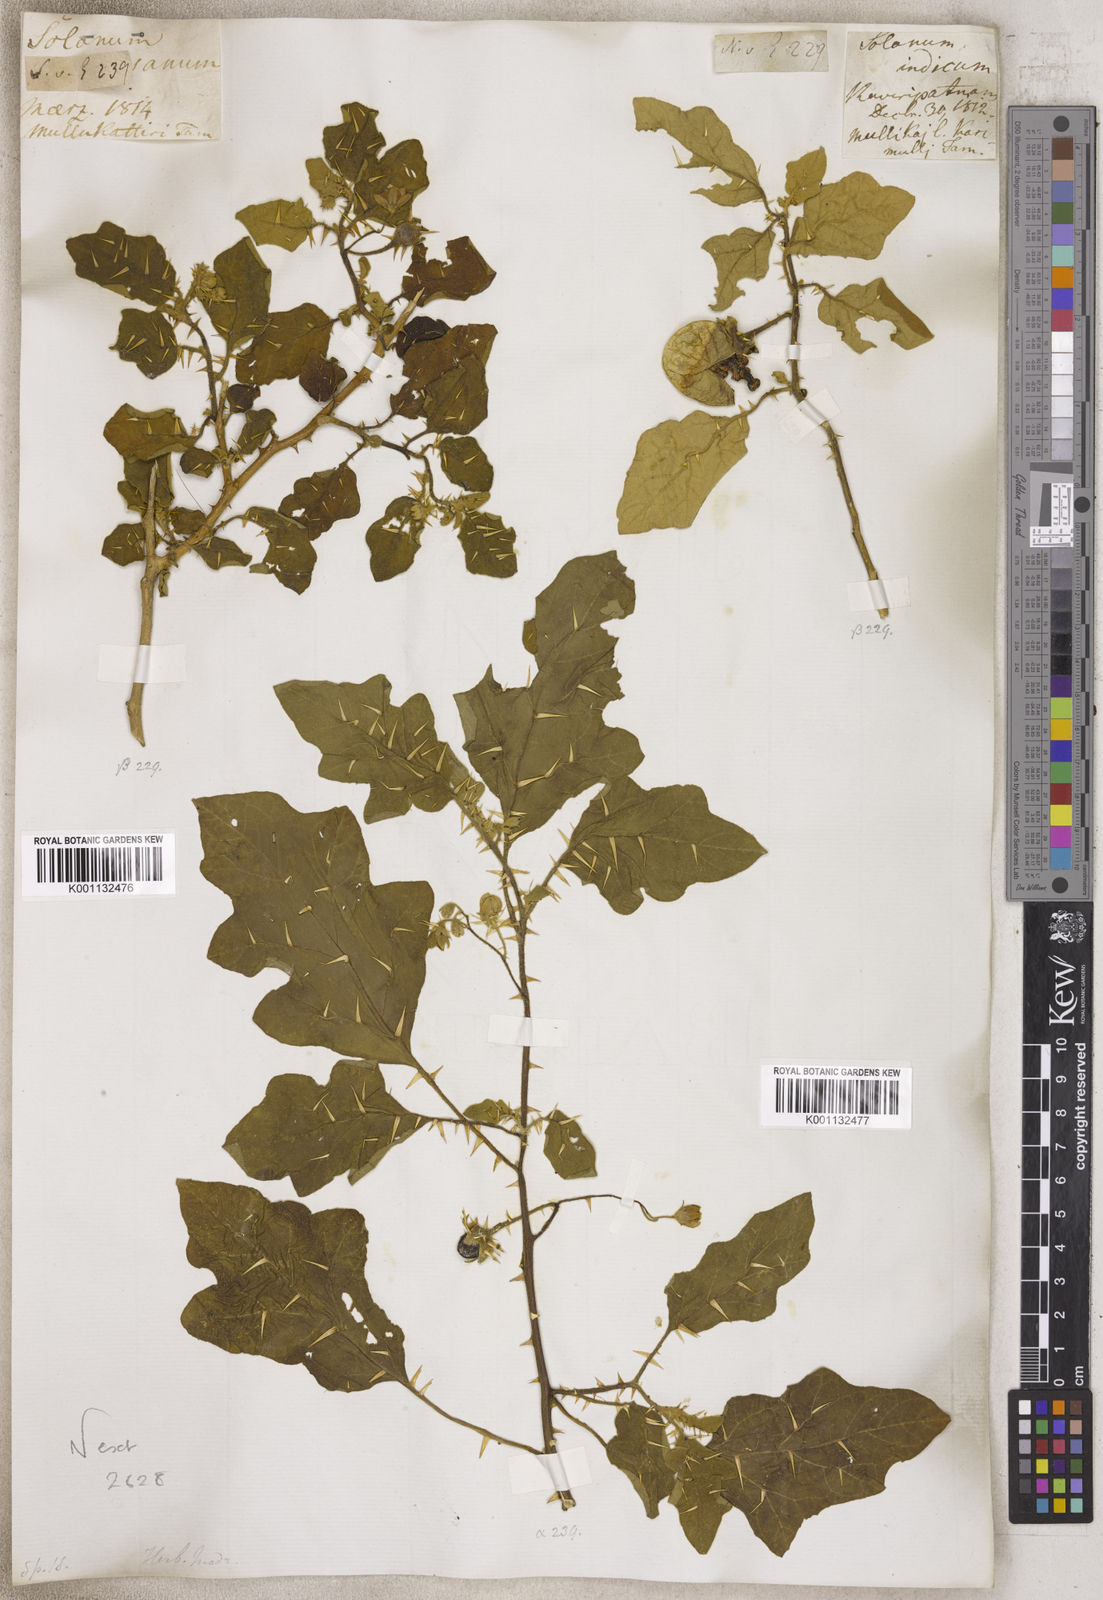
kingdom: Plantae
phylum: Tracheophyta
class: Magnoliopsida
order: Solanales
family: Solanaceae
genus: Solanum
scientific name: Solanum
